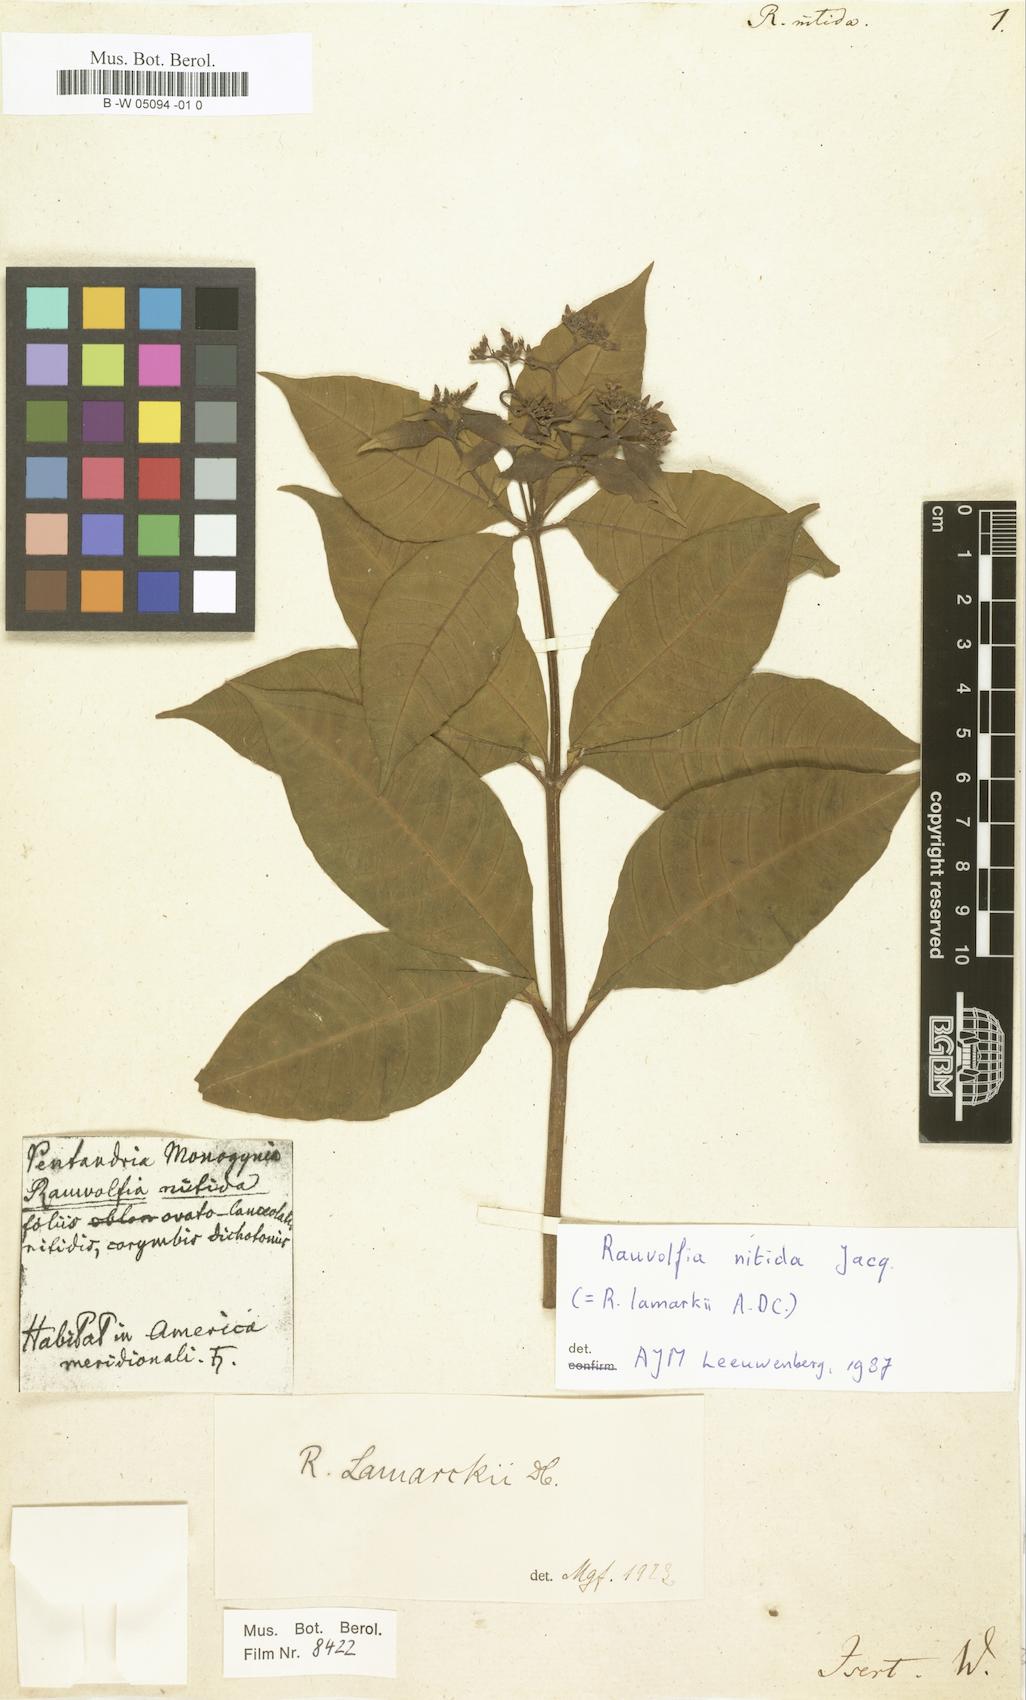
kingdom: Plantae
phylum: Tracheophyta
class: Magnoliopsida
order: Gentianales
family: Apocynaceae
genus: Rauvolfia
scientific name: Rauvolfia nitida
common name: Bitter-ash
